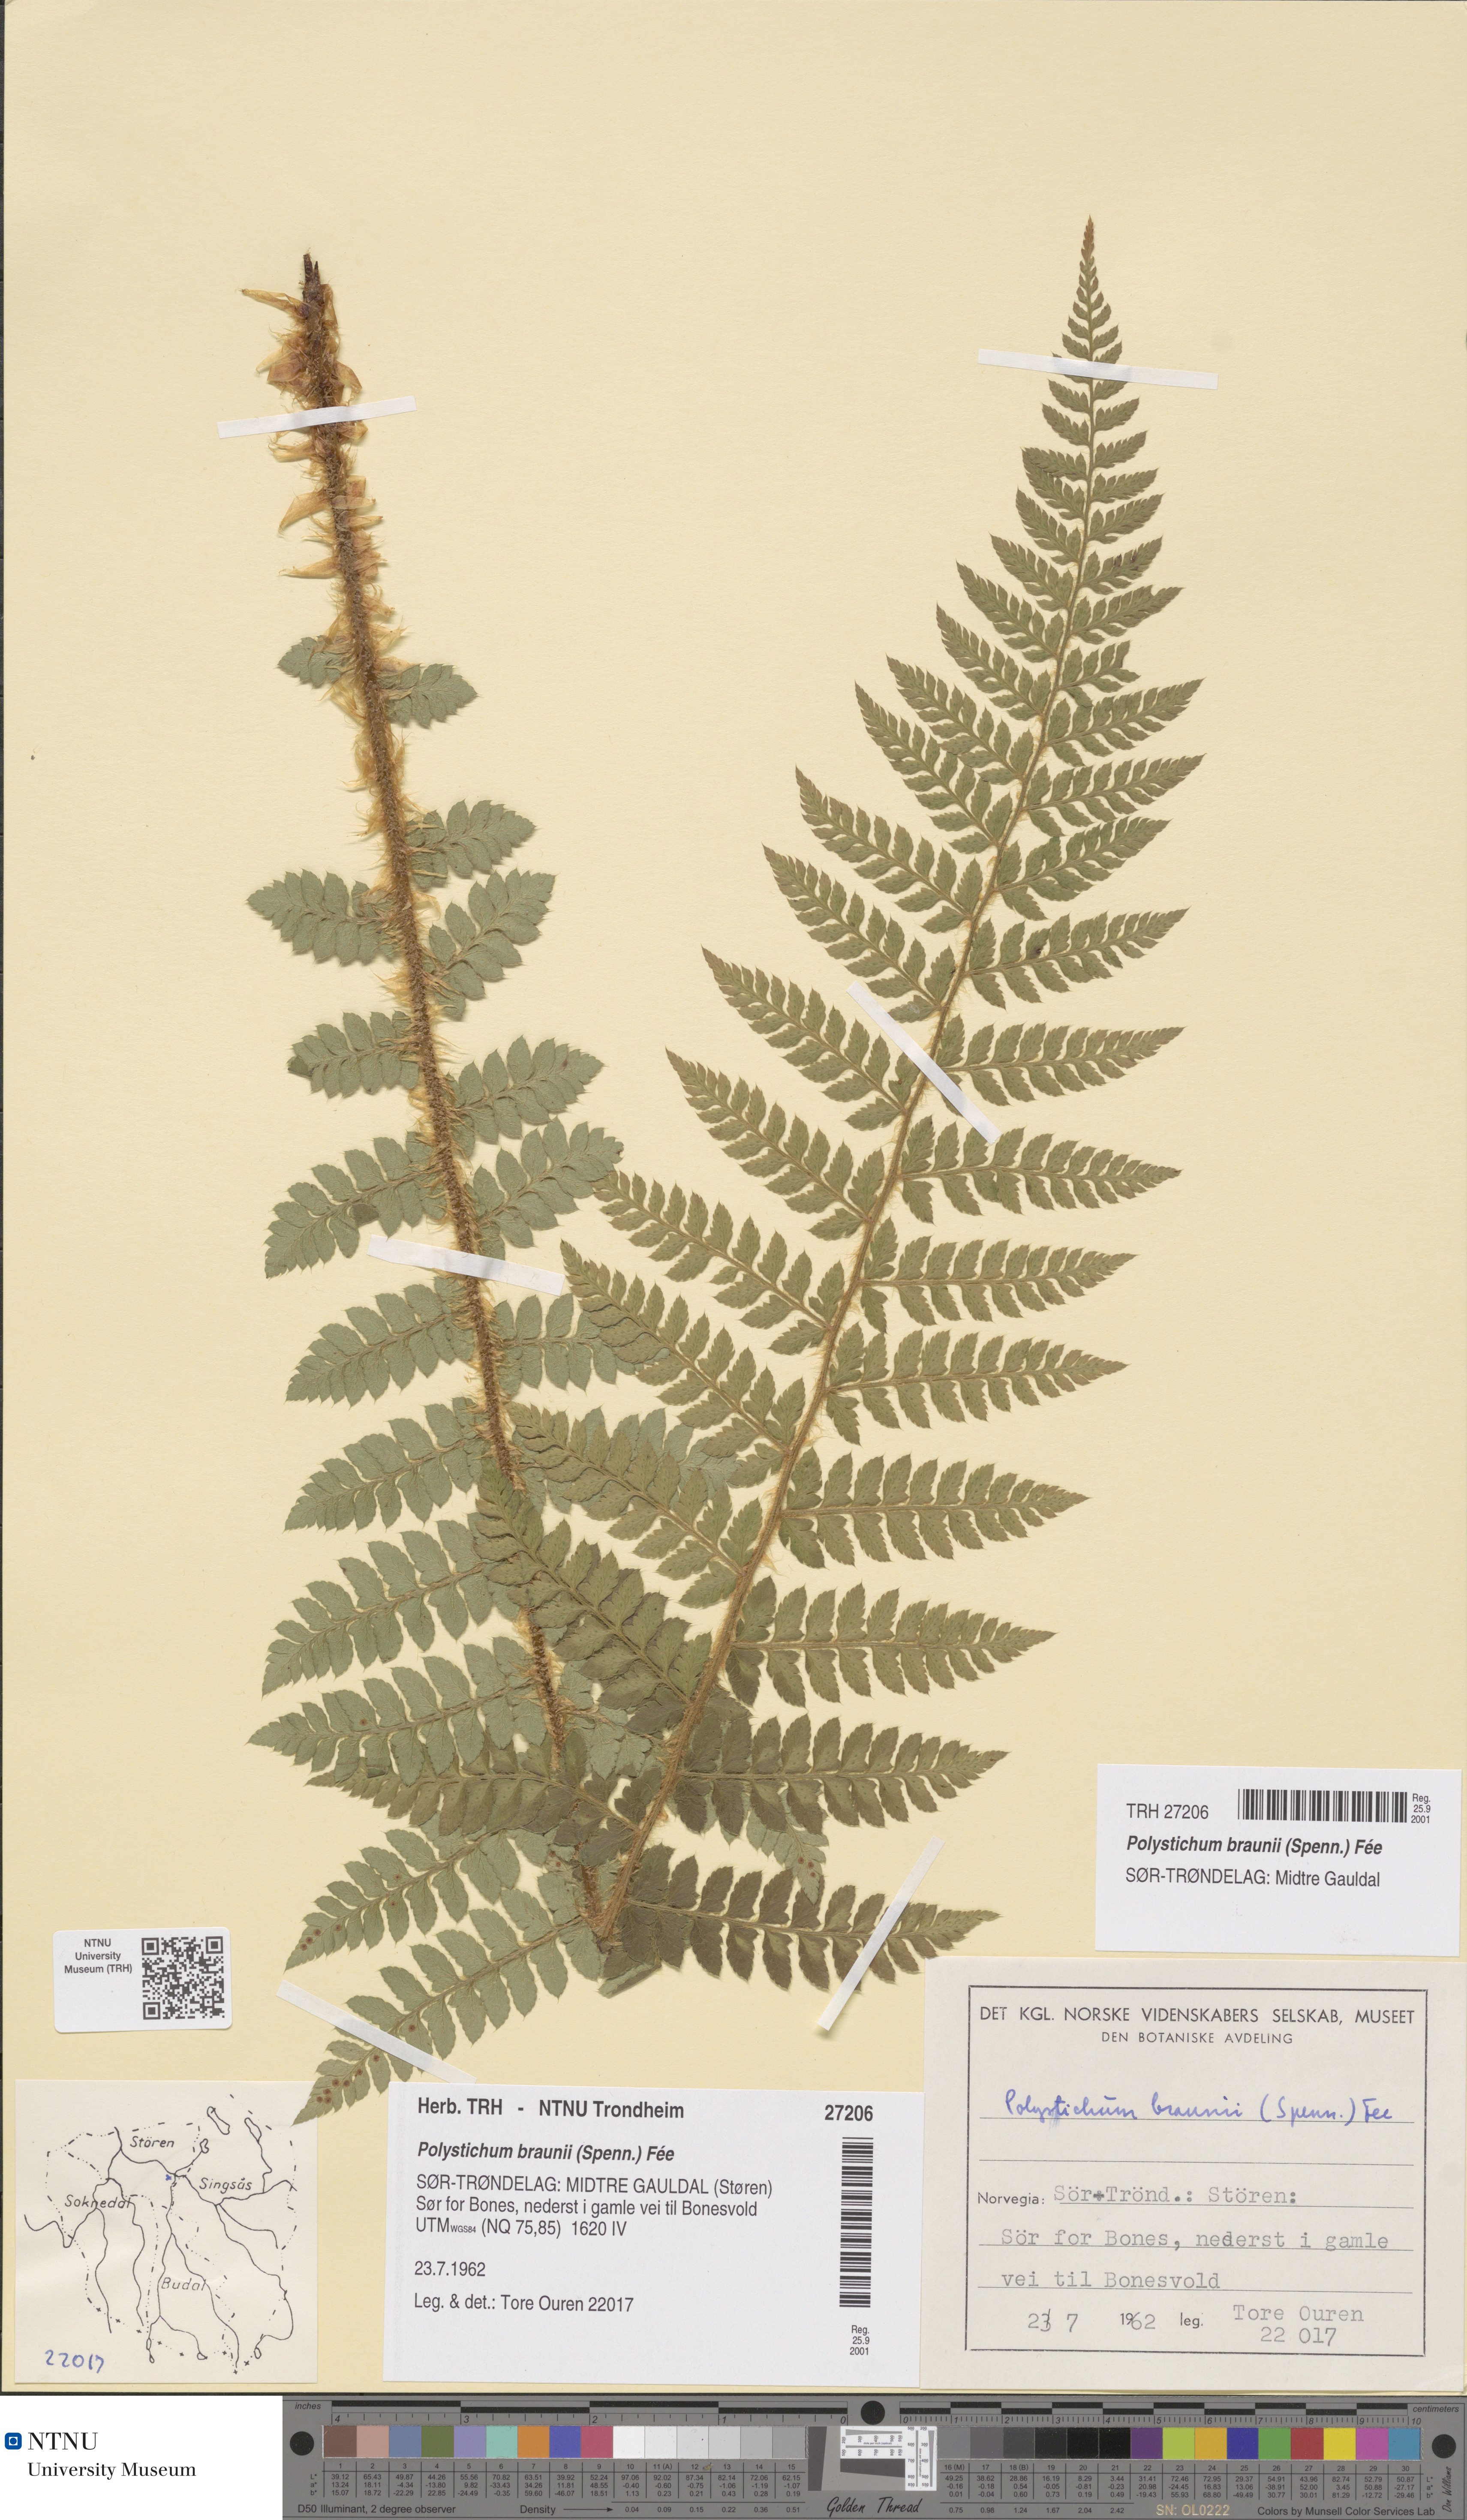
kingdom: Plantae
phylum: Tracheophyta
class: Polypodiopsida
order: Polypodiales
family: Dryopteridaceae
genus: Polystichum
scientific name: Polystichum braunii
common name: Braun's holly fern
